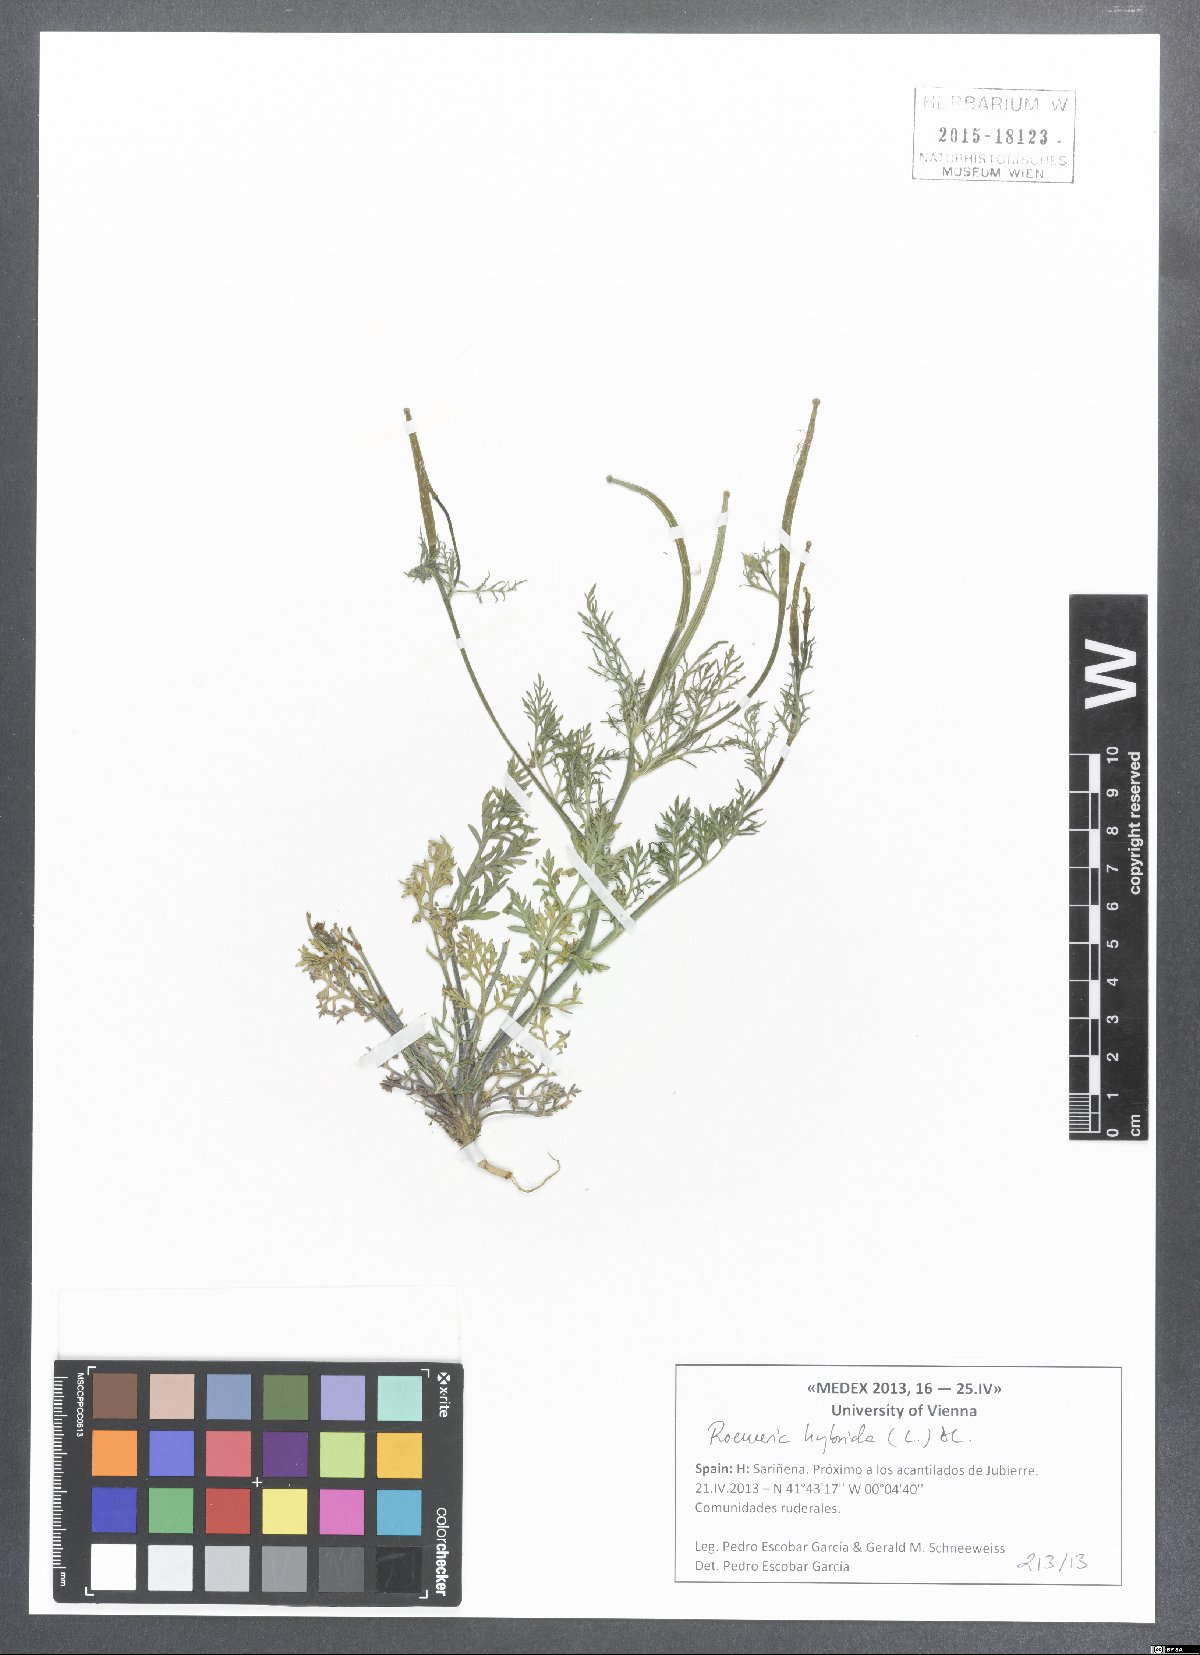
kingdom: Plantae
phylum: Tracheophyta
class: Magnoliopsida
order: Ranunculales
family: Papaveraceae
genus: Roemeria
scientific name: Roemeria hybrida
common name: Violet horned-poppy
